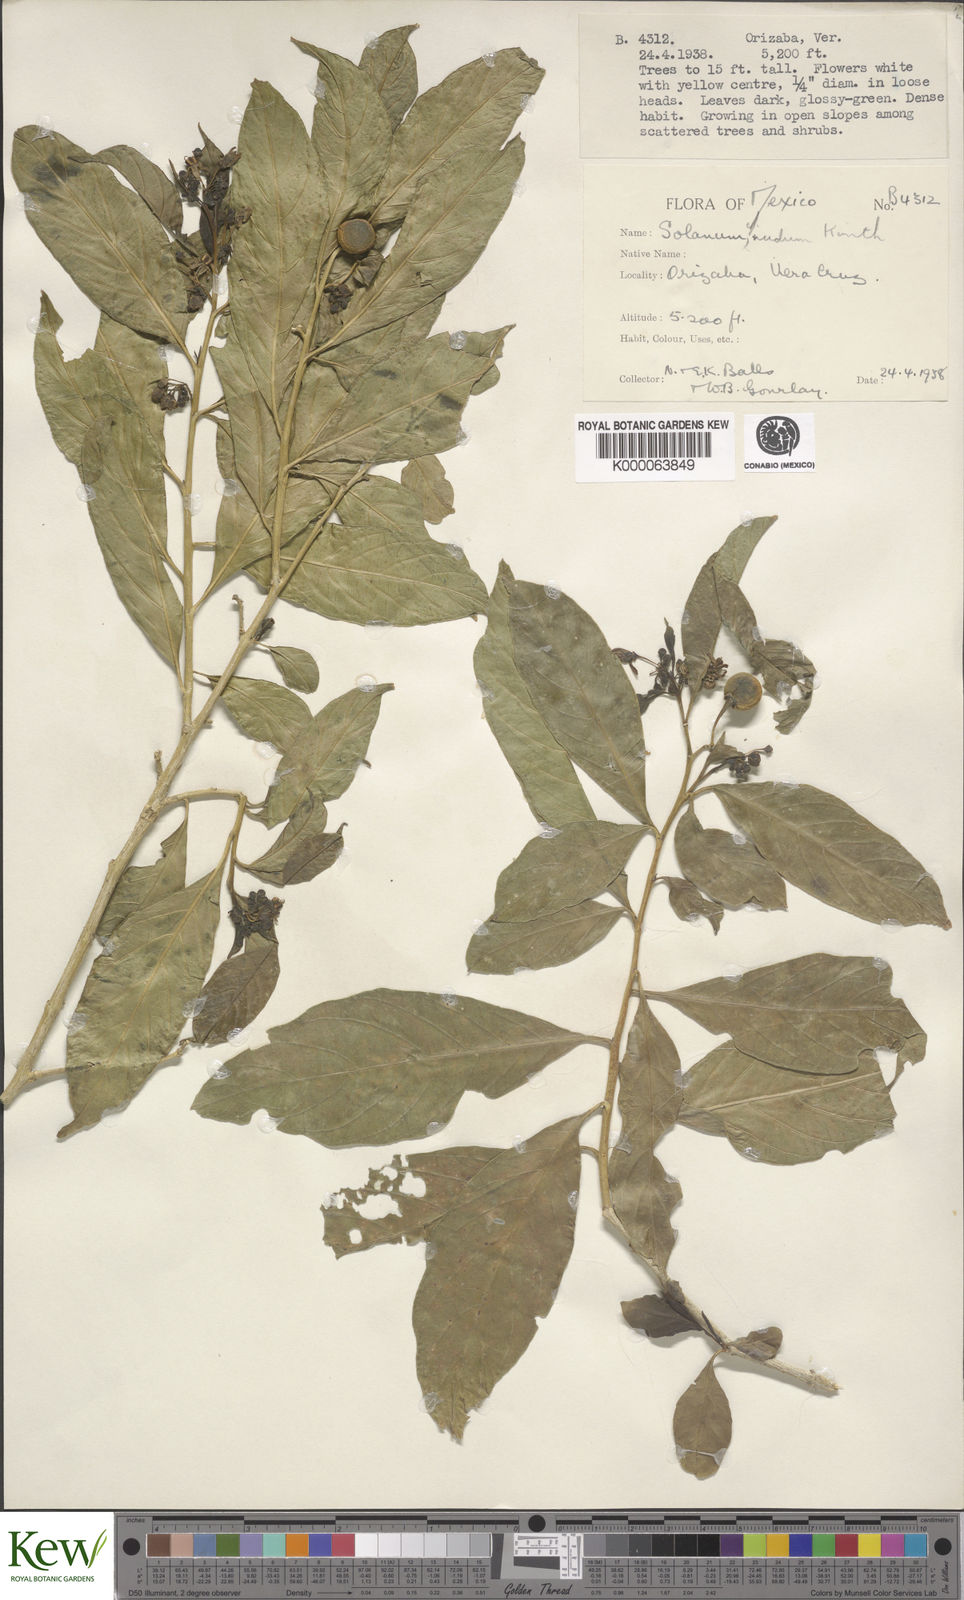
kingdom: Plantae
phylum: Tracheophyta
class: Magnoliopsida
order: Solanales
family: Solanaceae
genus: Solanum
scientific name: Solanum nudum
